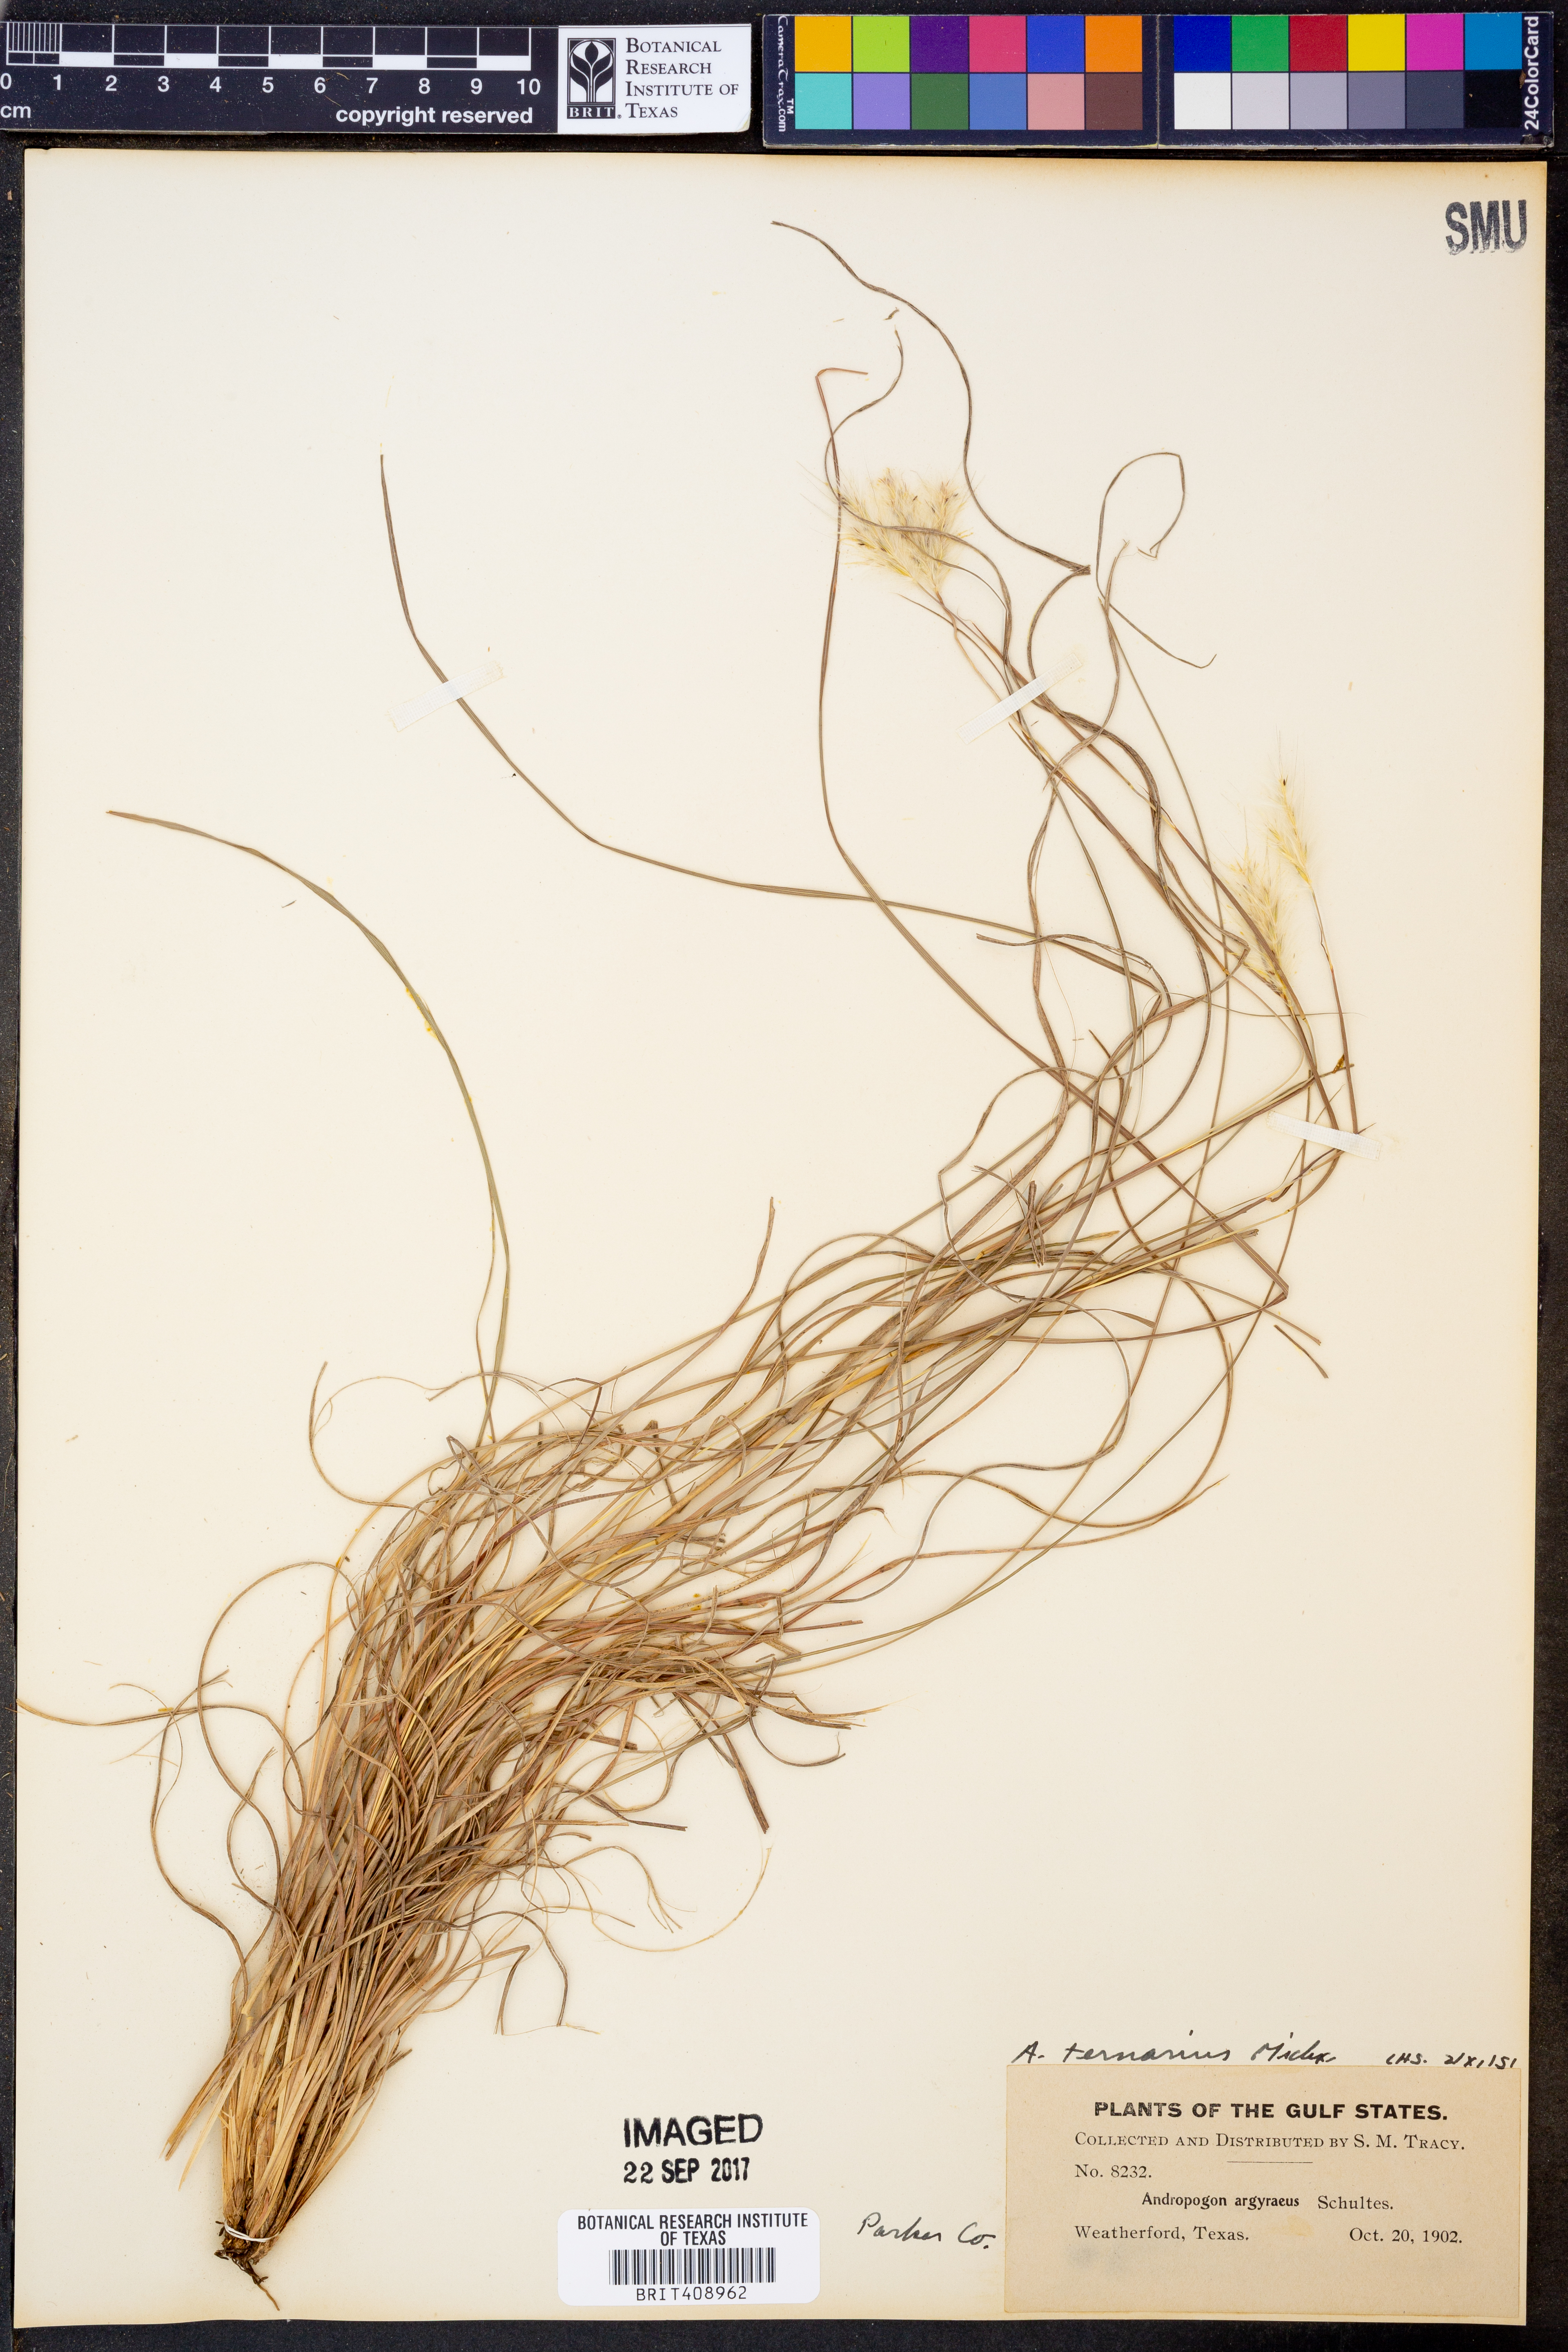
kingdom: Plantae
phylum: Tracheophyta
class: Liliopsida
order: Poales
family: Poaceae
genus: Andropogon
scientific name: Andropogon ternarius
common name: Split bluestem
